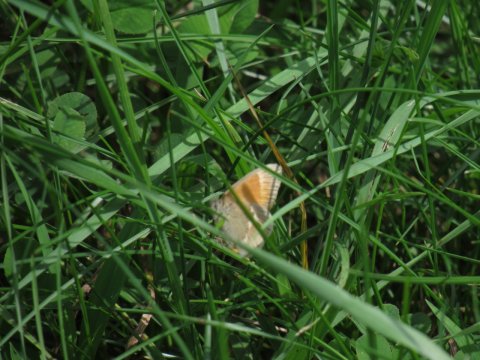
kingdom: Animalia
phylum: Arthropoda
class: Insecta
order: Lepidoptera
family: Nymphalidae
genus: Coenonympha
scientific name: Coenonympha tullia
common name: Large Heath
